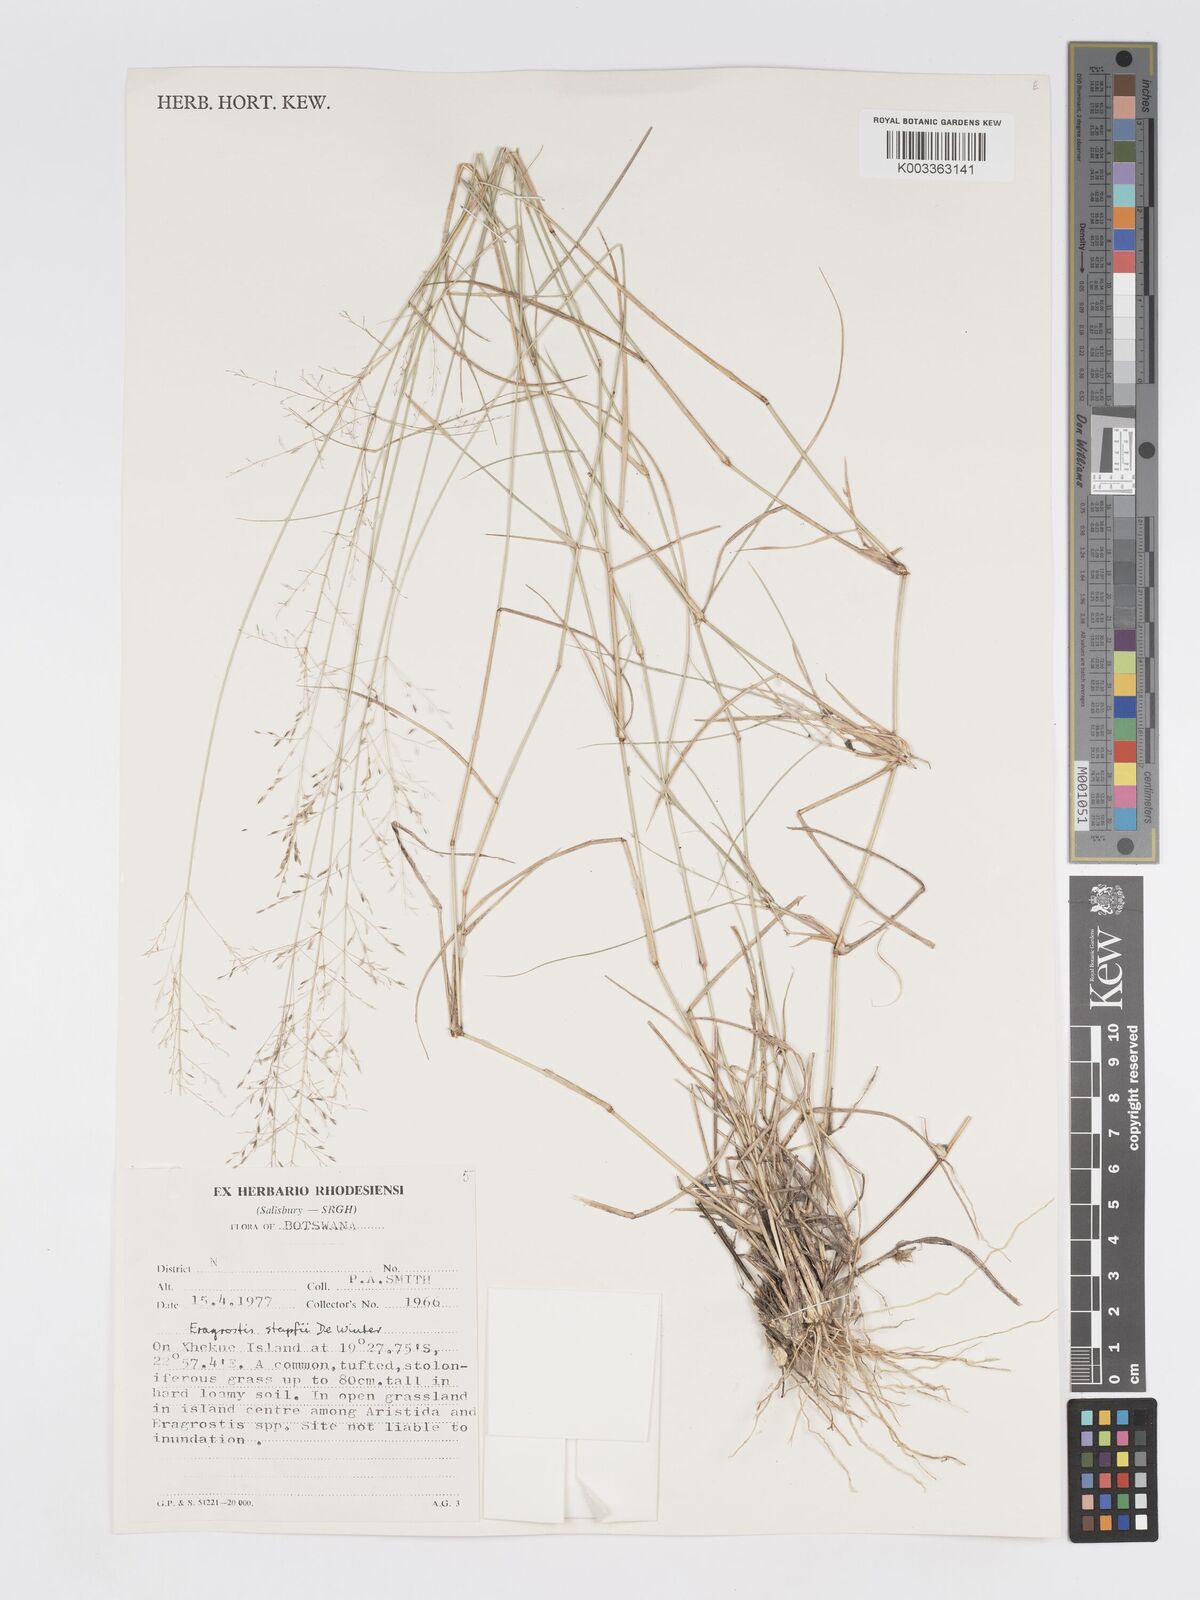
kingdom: Plantae
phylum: Tracheophyta
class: Liliopsida
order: Poales
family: Poaceae
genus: Eragrostis
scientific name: Eragrostis cylindriflora
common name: Cylinderflower lovegrass
